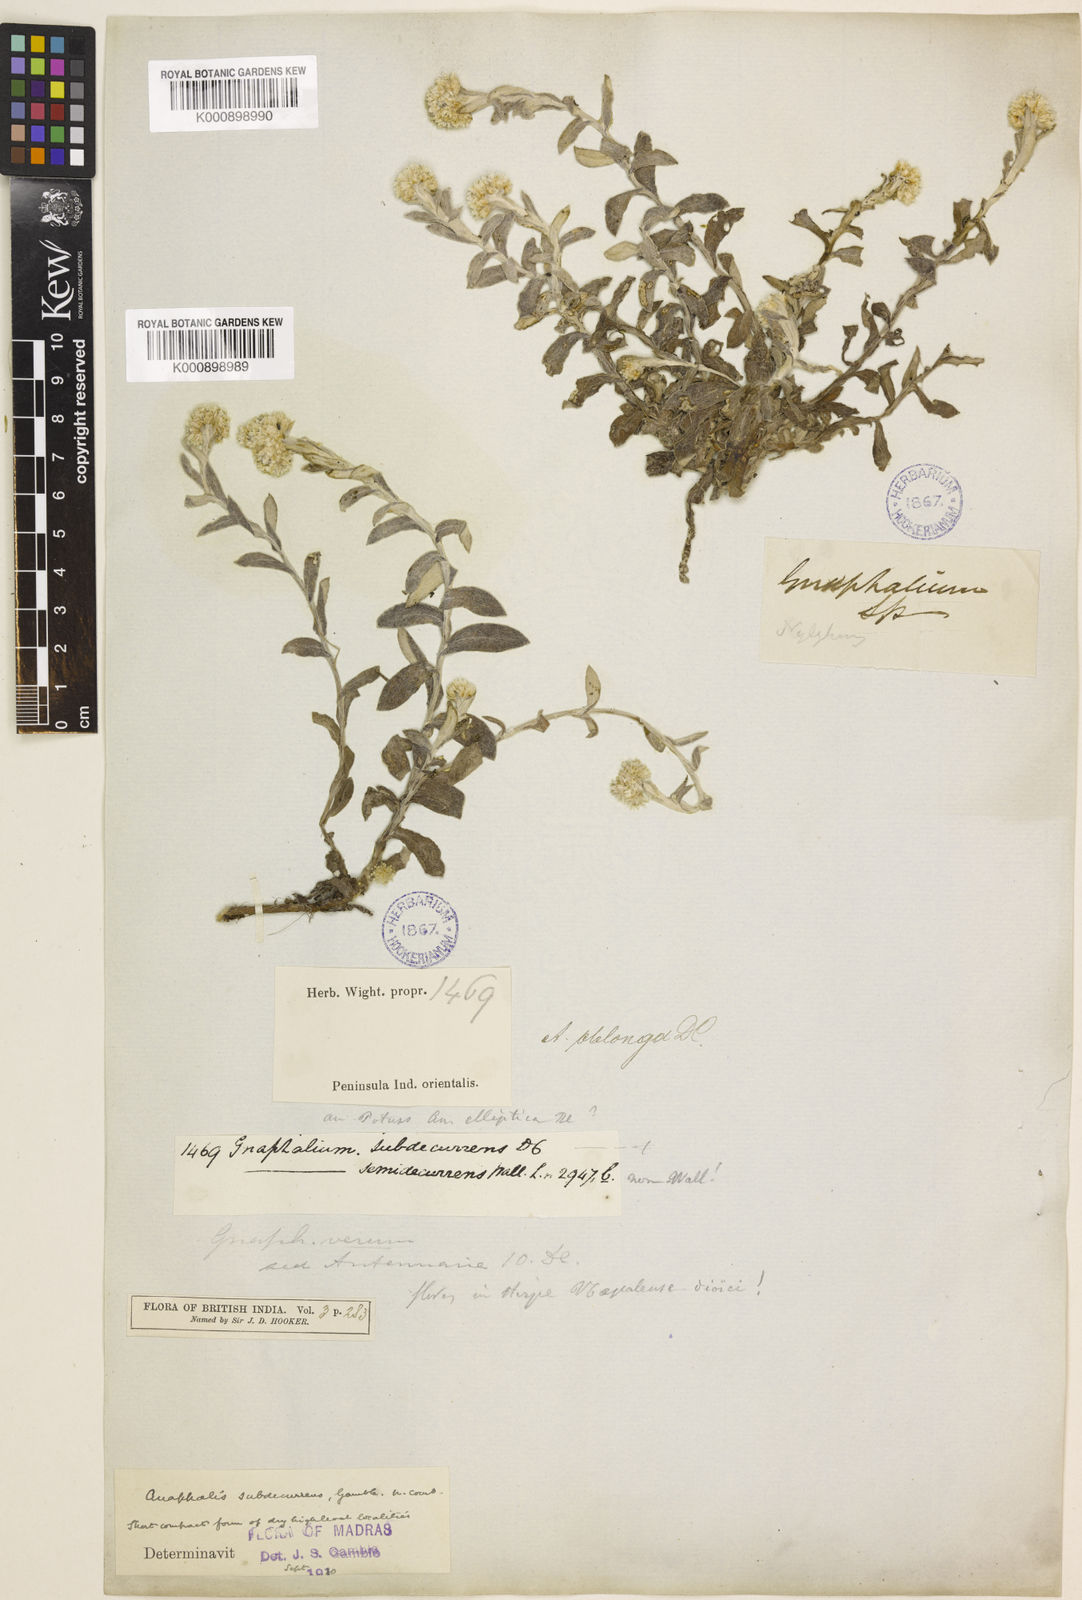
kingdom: Plantae
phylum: Tracheophyta
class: Magnoliopsida
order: Asterales
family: Asteraceae
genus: Anaphalis
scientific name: Anaphalis subdecurrens
